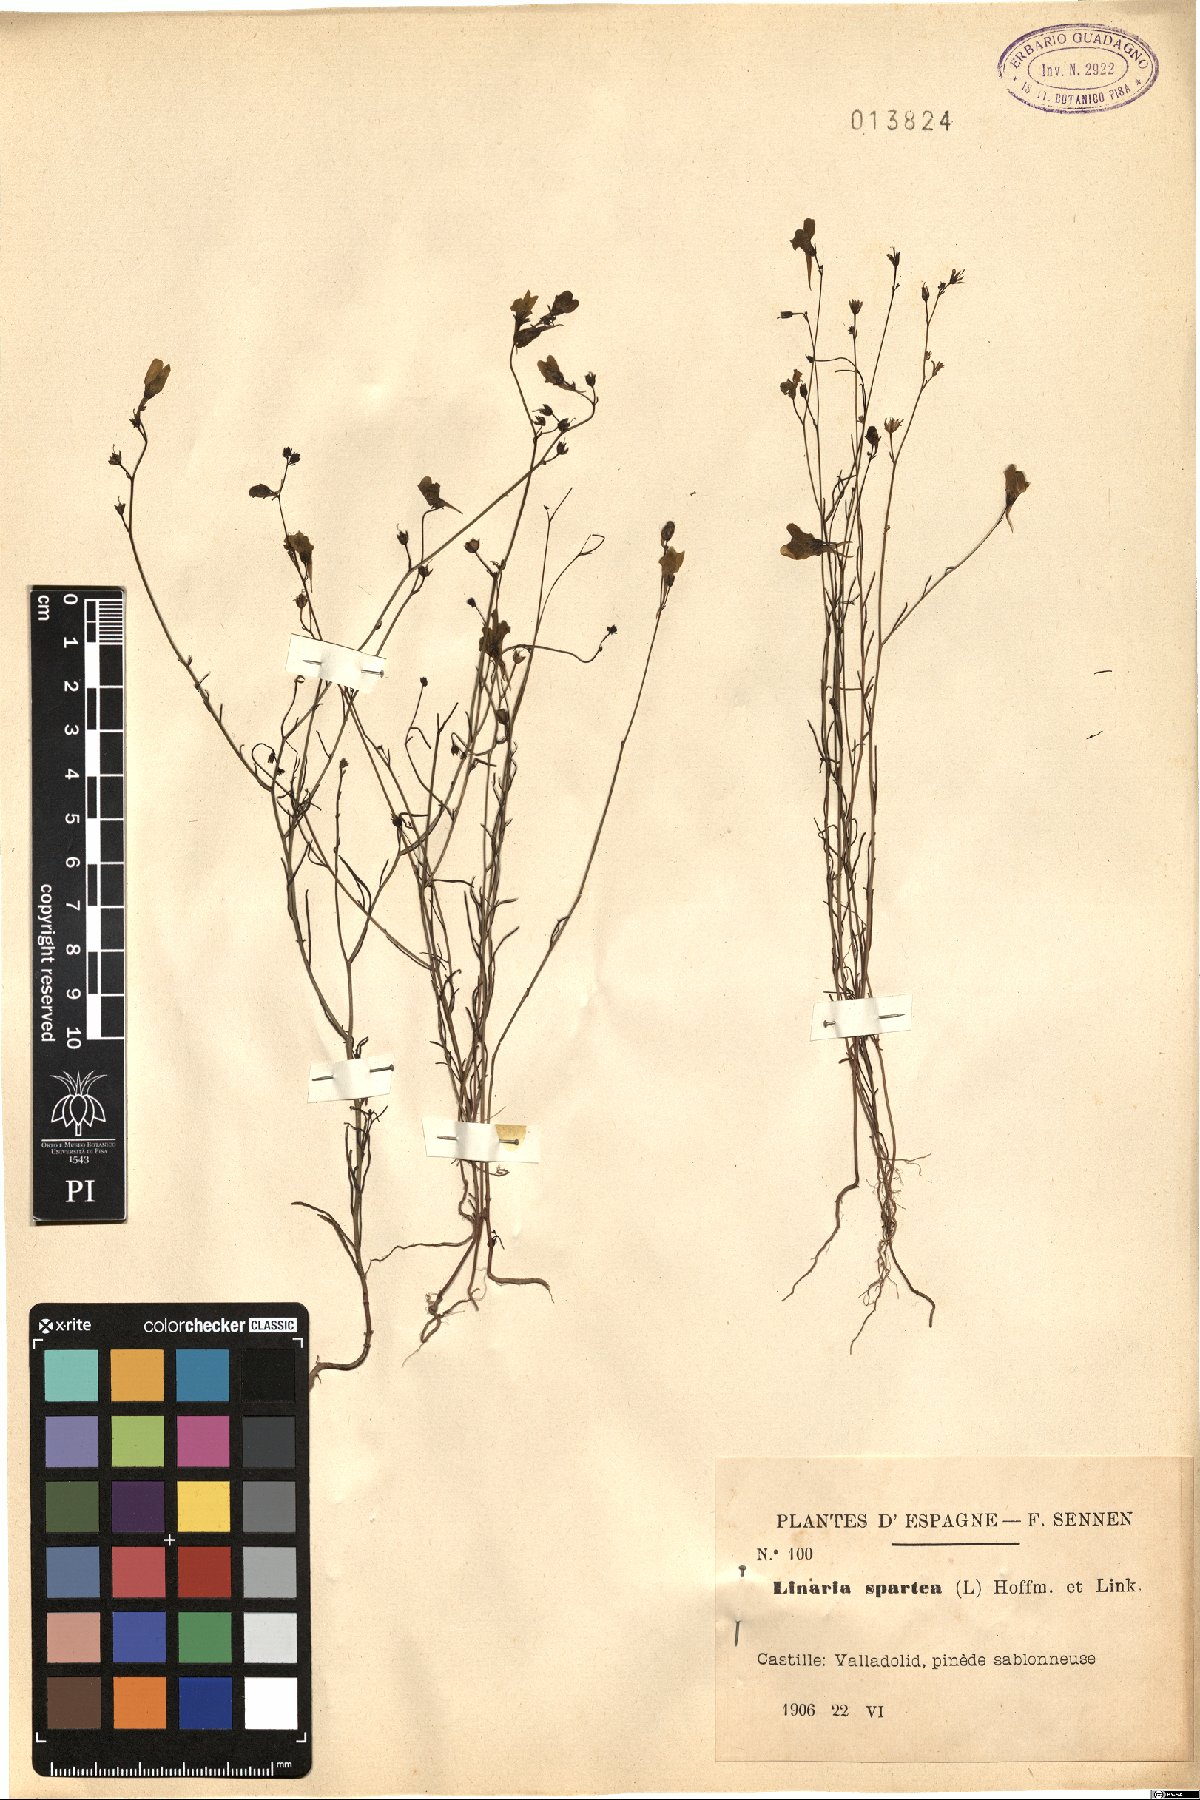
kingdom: Plantae
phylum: Tracheophyta
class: Magnoliopsida
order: Lamiales
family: Plantaginaceae
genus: Linaria
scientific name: Linaria spartea
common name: Ballast toadflax
